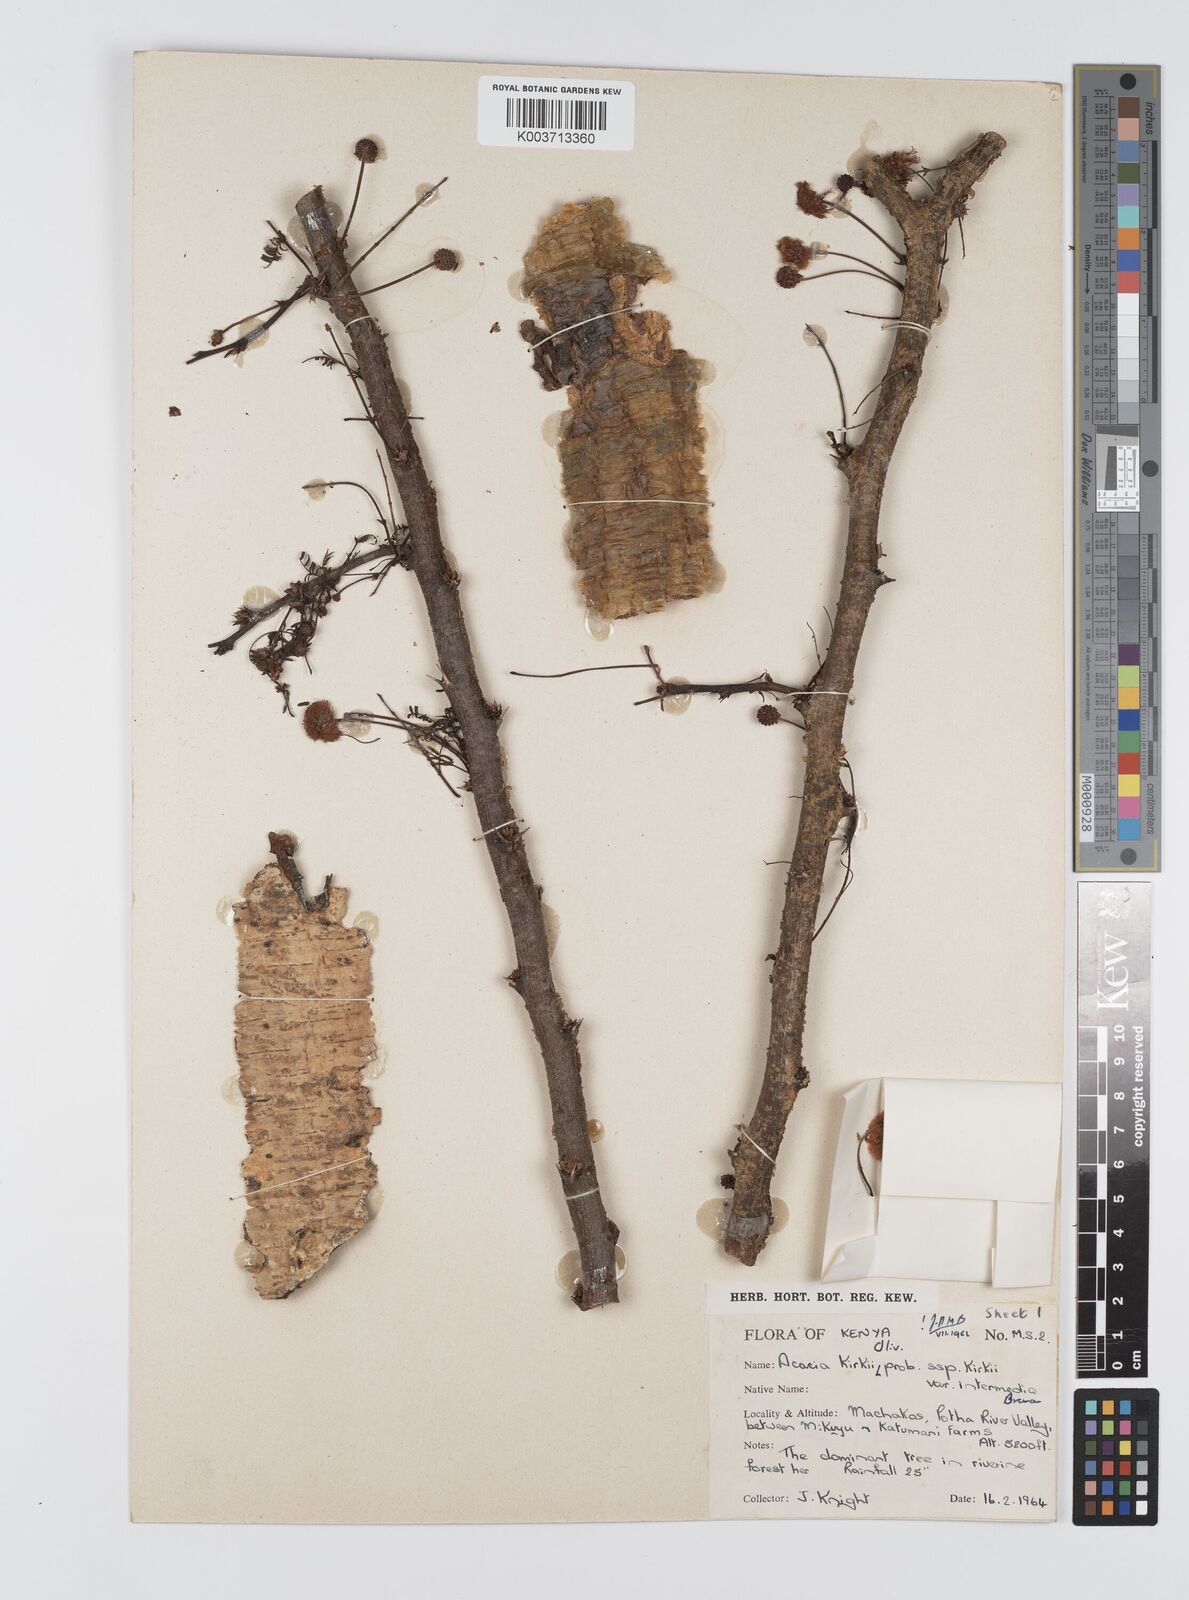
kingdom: Plantae
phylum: Tracheophyta
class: Magnoliopsida
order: Fabales
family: Fabaceae
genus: Vachellia
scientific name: Vachellia kirkii
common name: Flood-plain acacia
